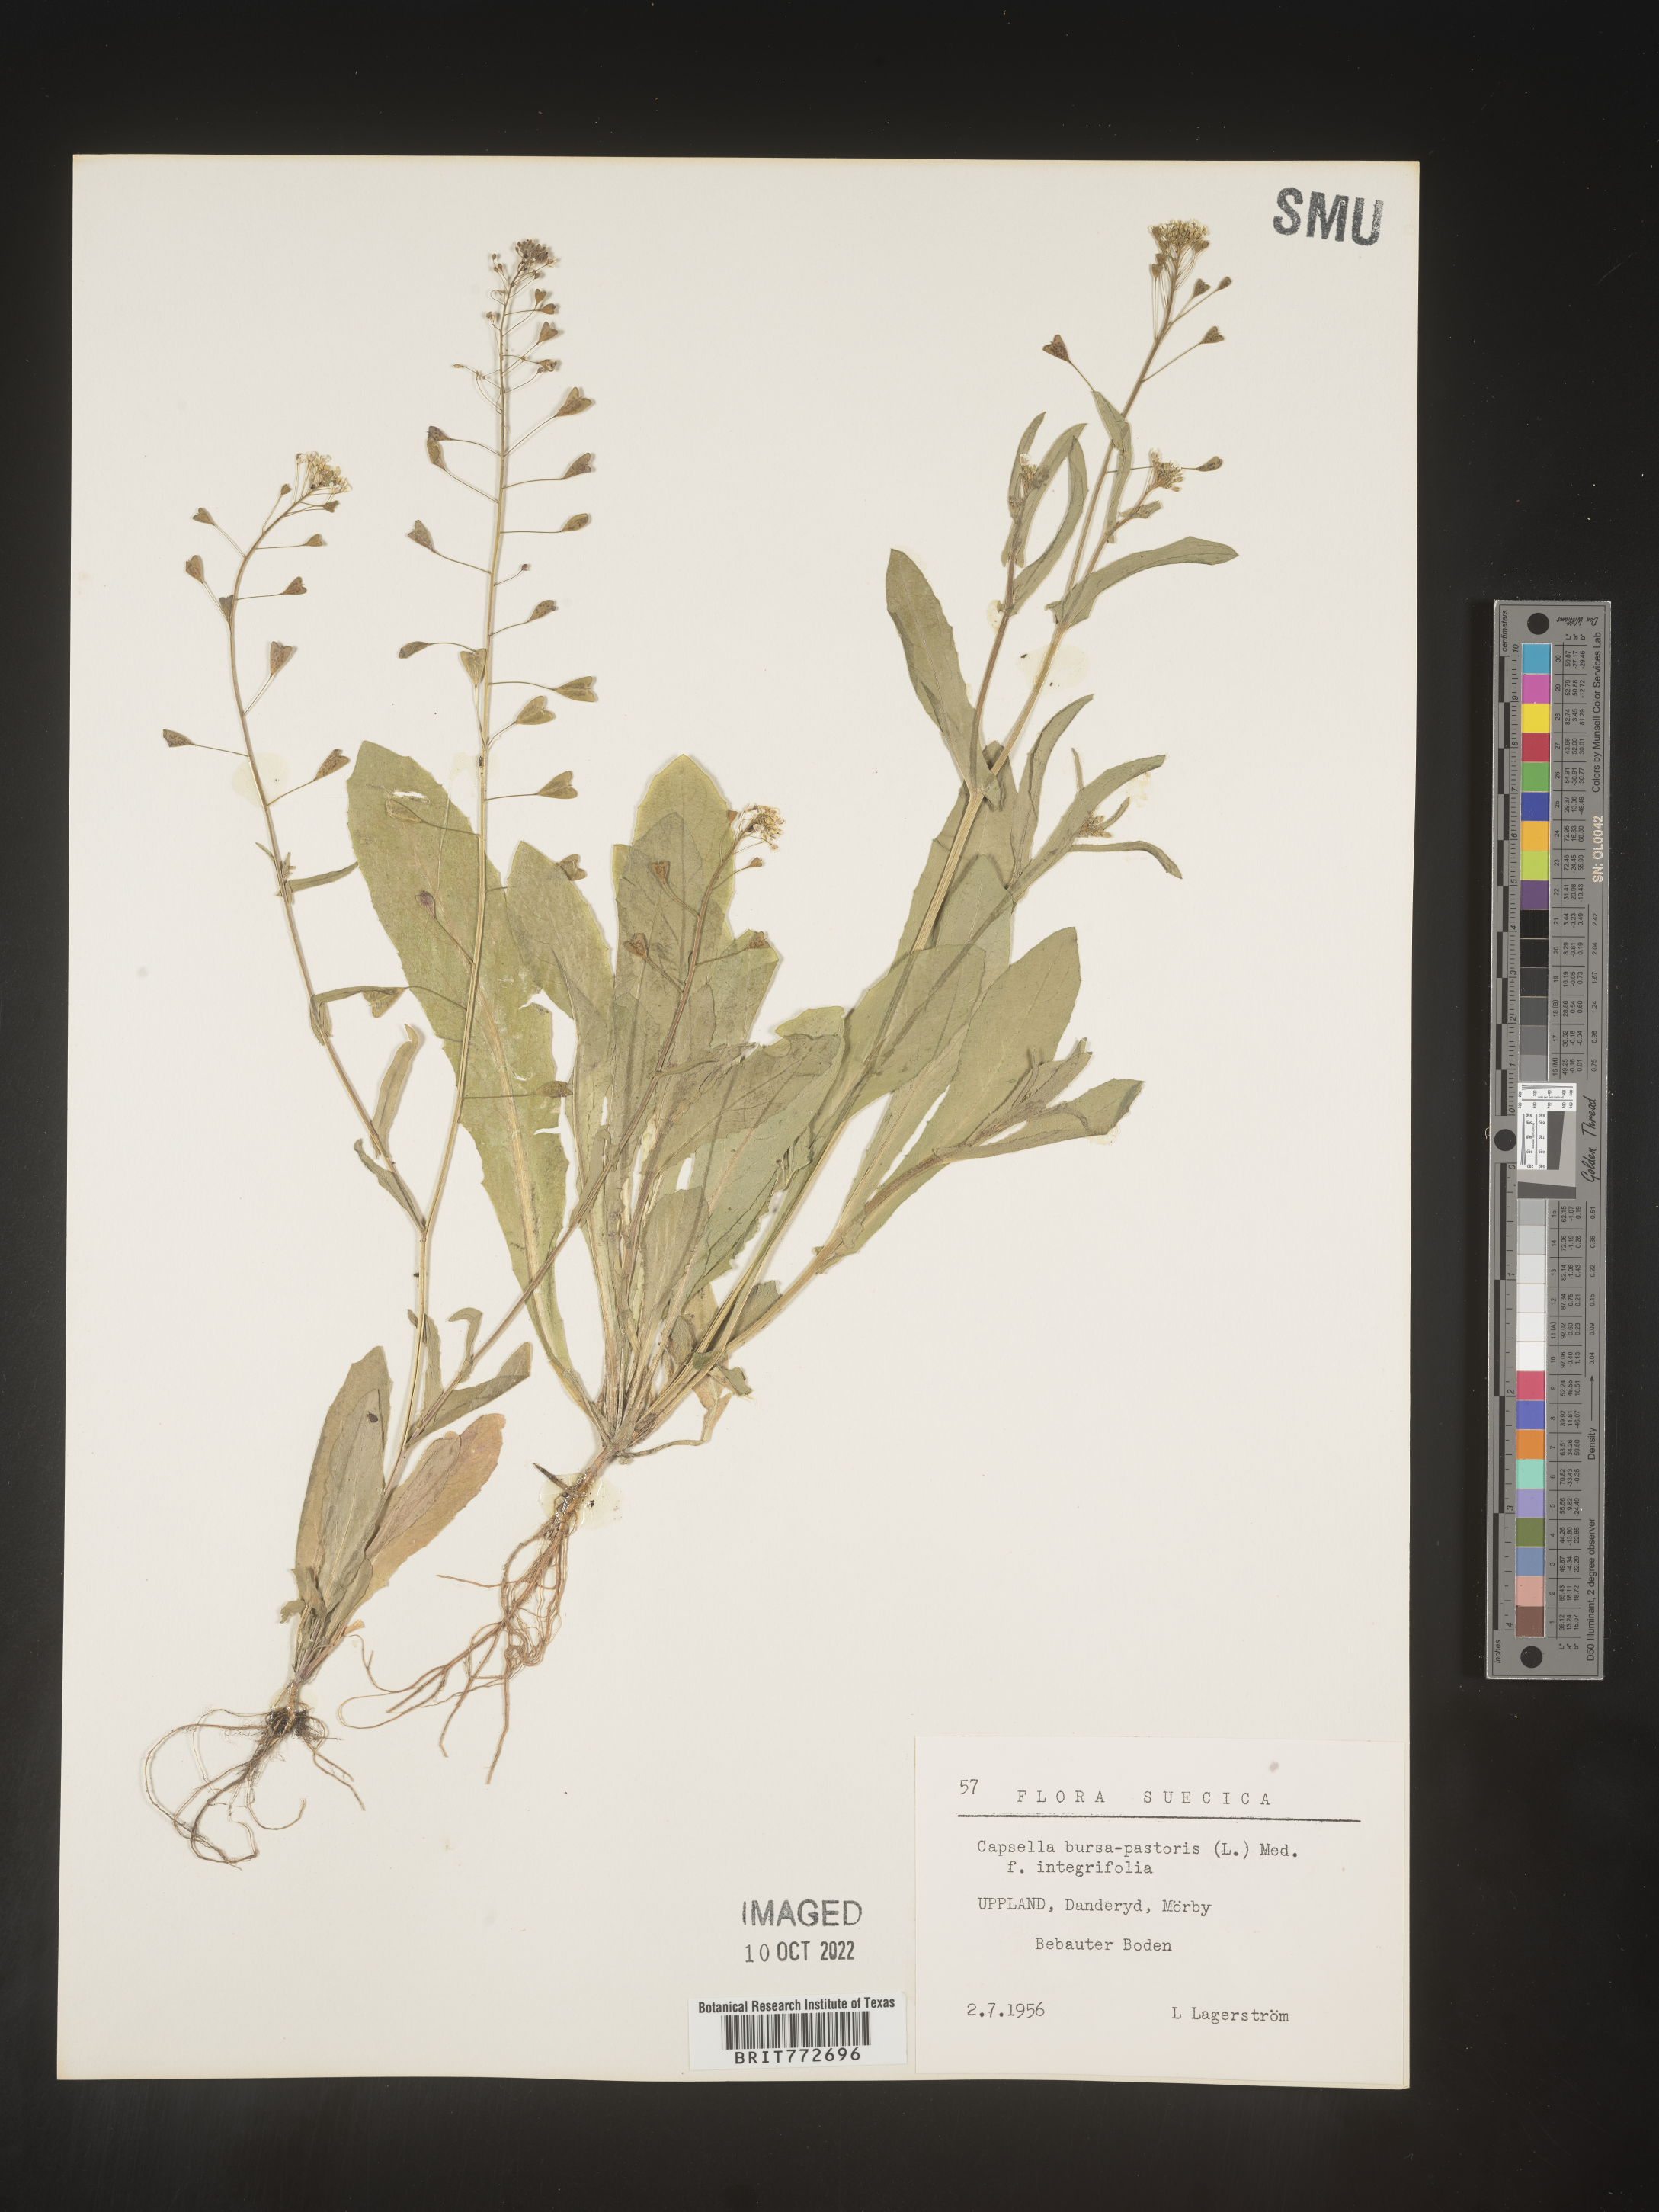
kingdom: Plantae
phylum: Tracheophyta
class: Magnoliopsida
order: Brassicales
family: Brassicaceae
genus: Capsella
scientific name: Capsella
